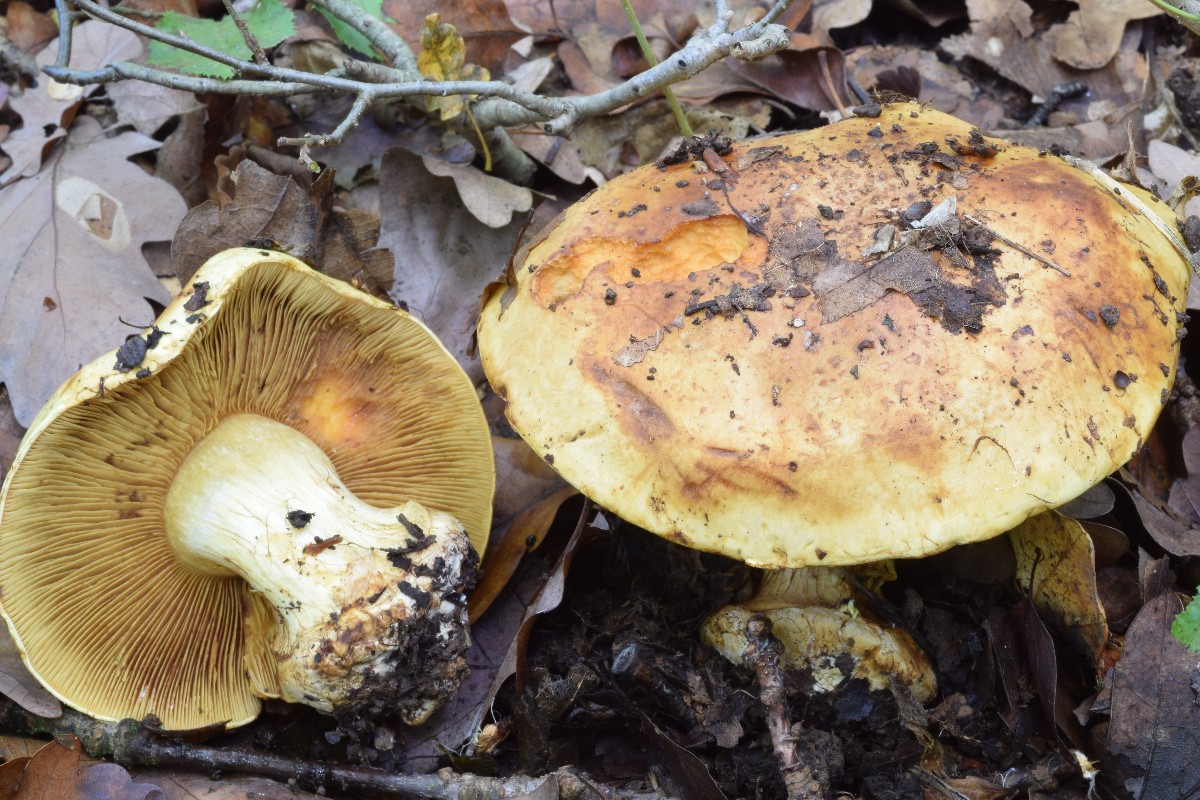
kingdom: Fungi
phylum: Basidiomycota
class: Agaricomycetes
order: Agaricales
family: Cortinariaceae
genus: Calonarius
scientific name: Calonarius olearioides
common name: safran-slørhat
